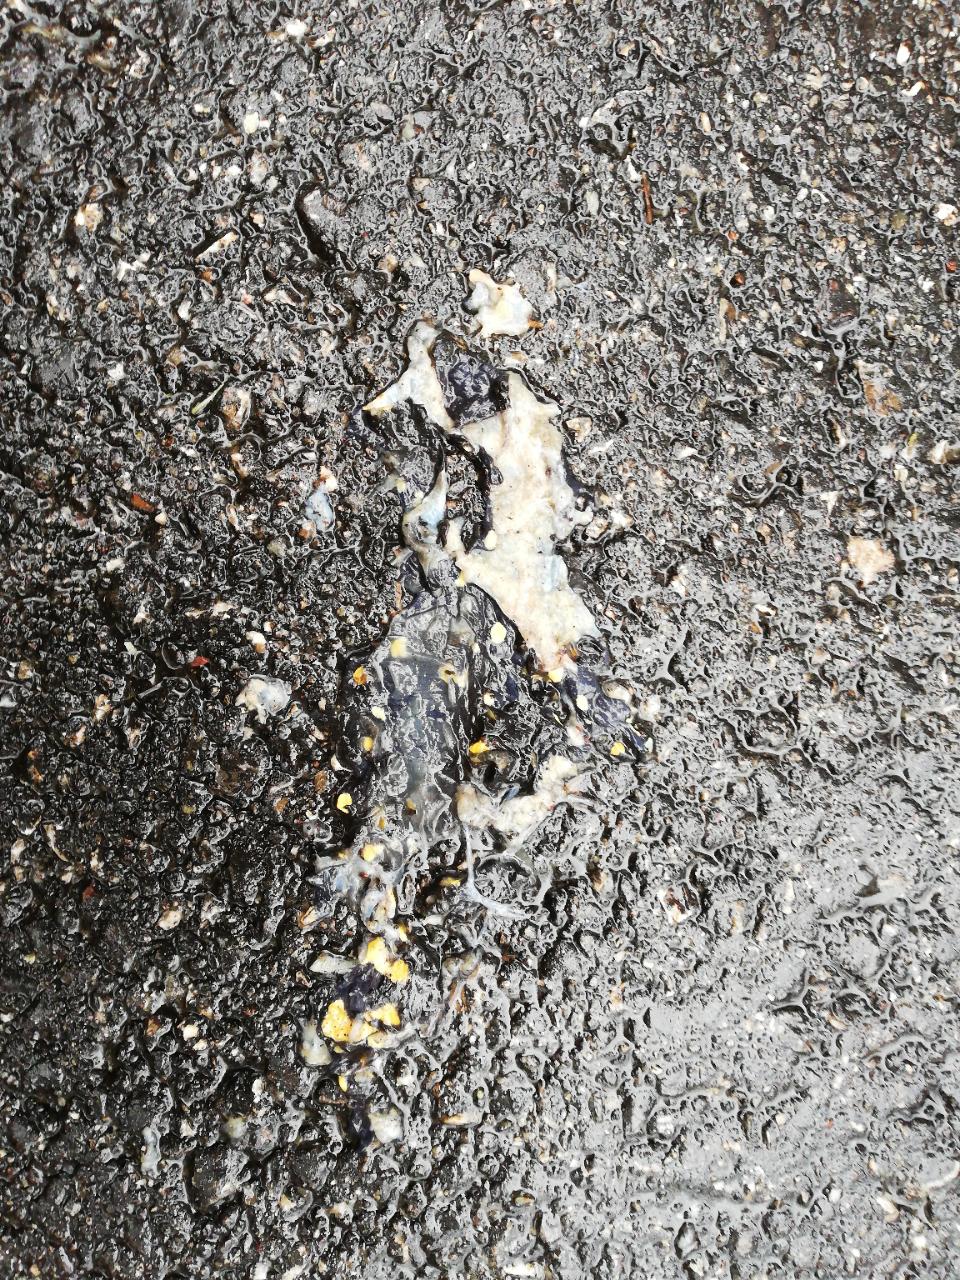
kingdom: Animalia
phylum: Chordata
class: Amphibia
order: Caudata
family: Salamandridae
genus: Salamandra
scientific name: Salamandra salamandra
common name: Fire salamander
